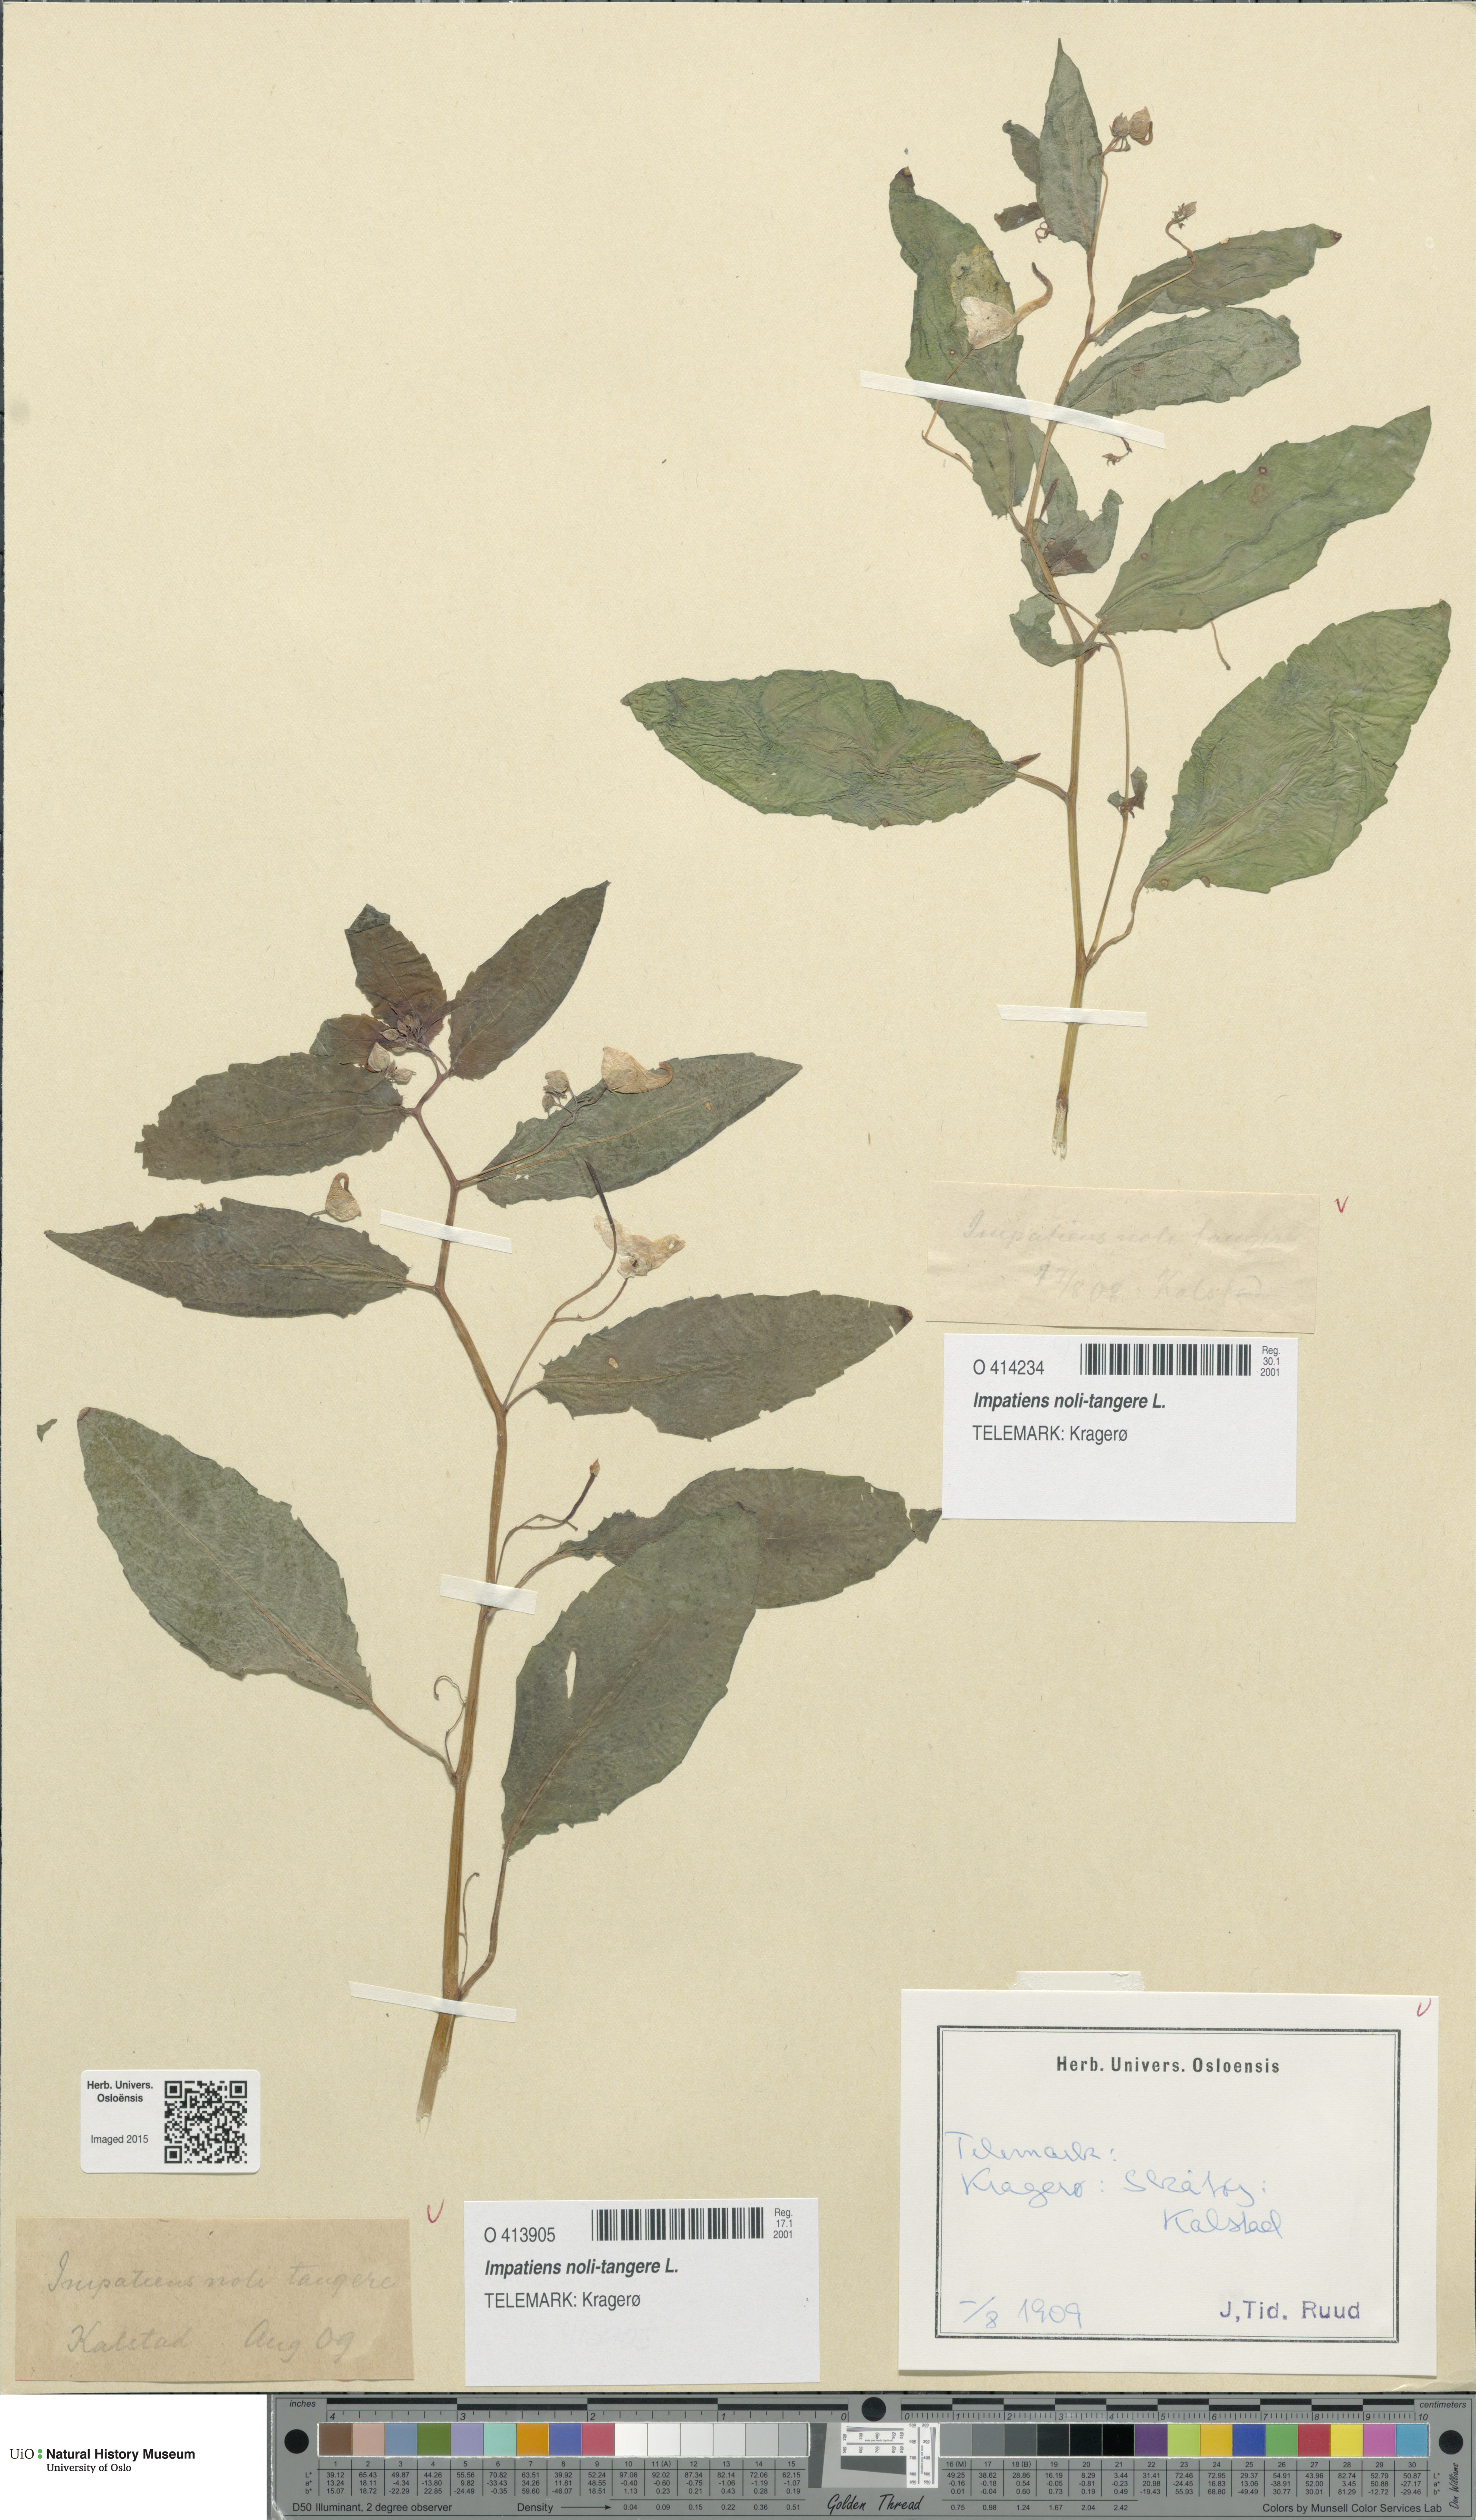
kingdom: Plantae
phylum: Tracheophyta
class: Magnoliopsida
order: Ericales
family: Balsaminaceae
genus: Impatiens
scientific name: Impatiens noli-tangere
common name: Touch-me-not balsam
